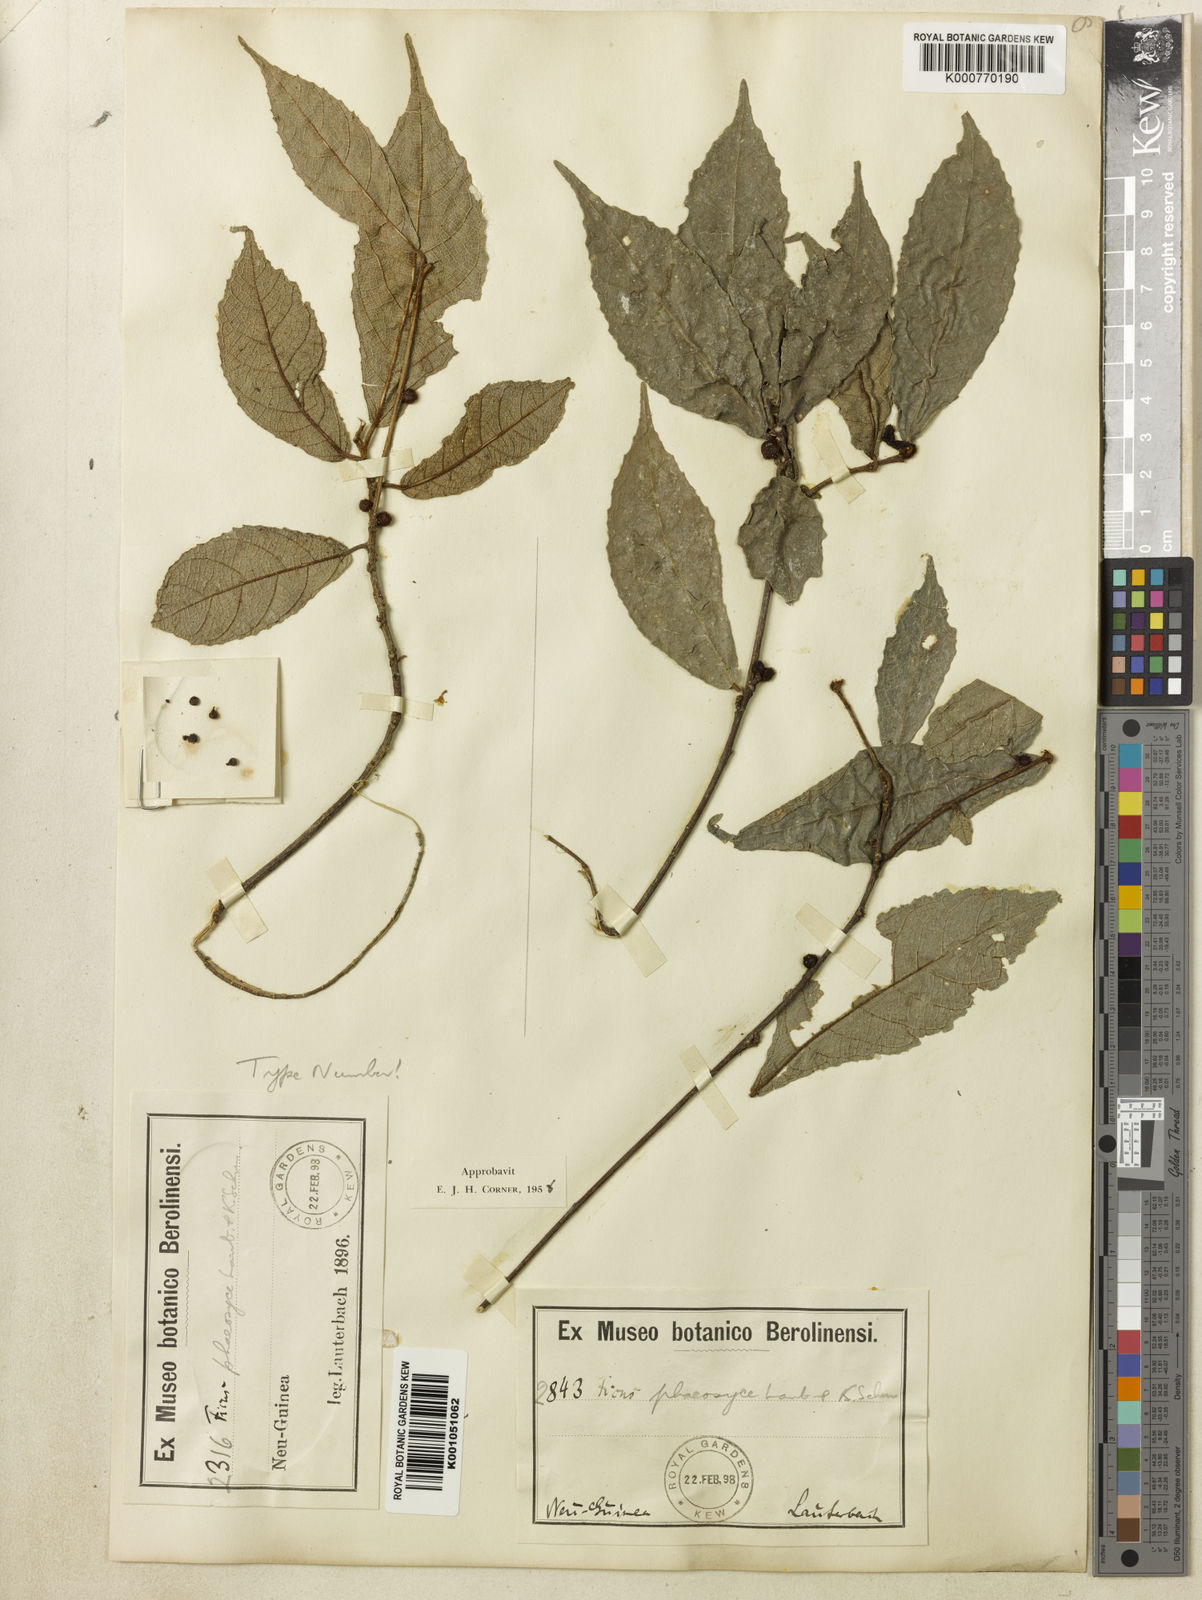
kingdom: Plantae
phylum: Tracheophyta
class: Magnoliopsida
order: Rosales
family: Moraceae
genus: Ficus
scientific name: Ficus phaeosyce
